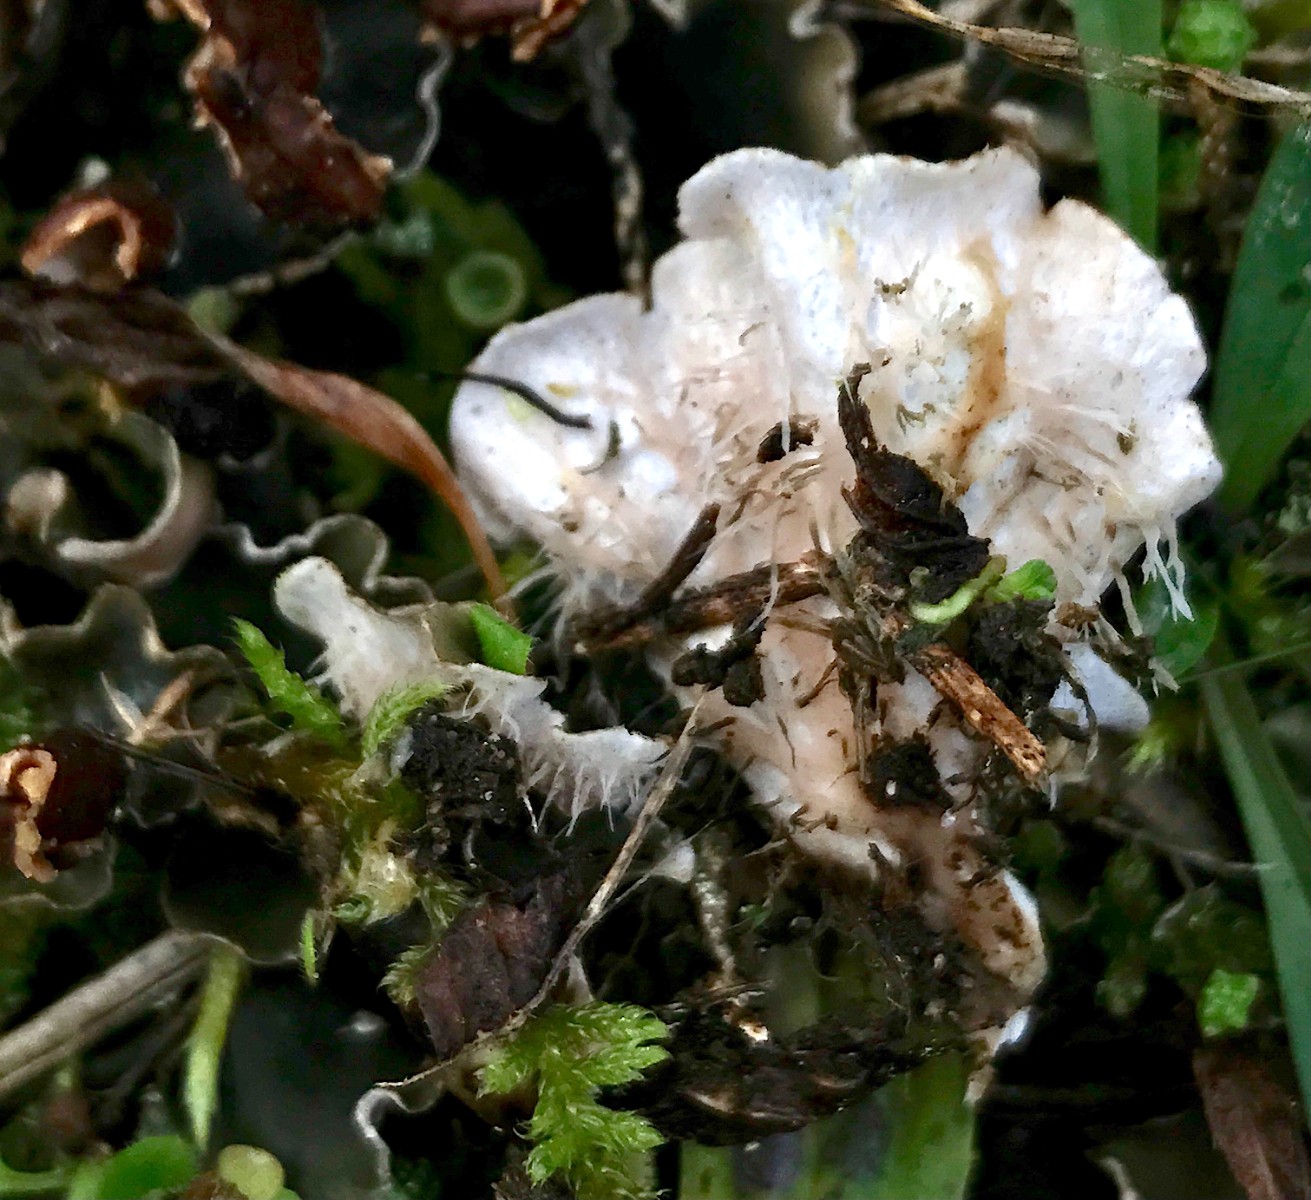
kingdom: Fungi
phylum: Ascomycota
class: Lecanoromycetes
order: Peltigerales
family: Peltigeraceae
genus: Peltigera
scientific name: Peltigera didactyla
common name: liden skjoldlav
